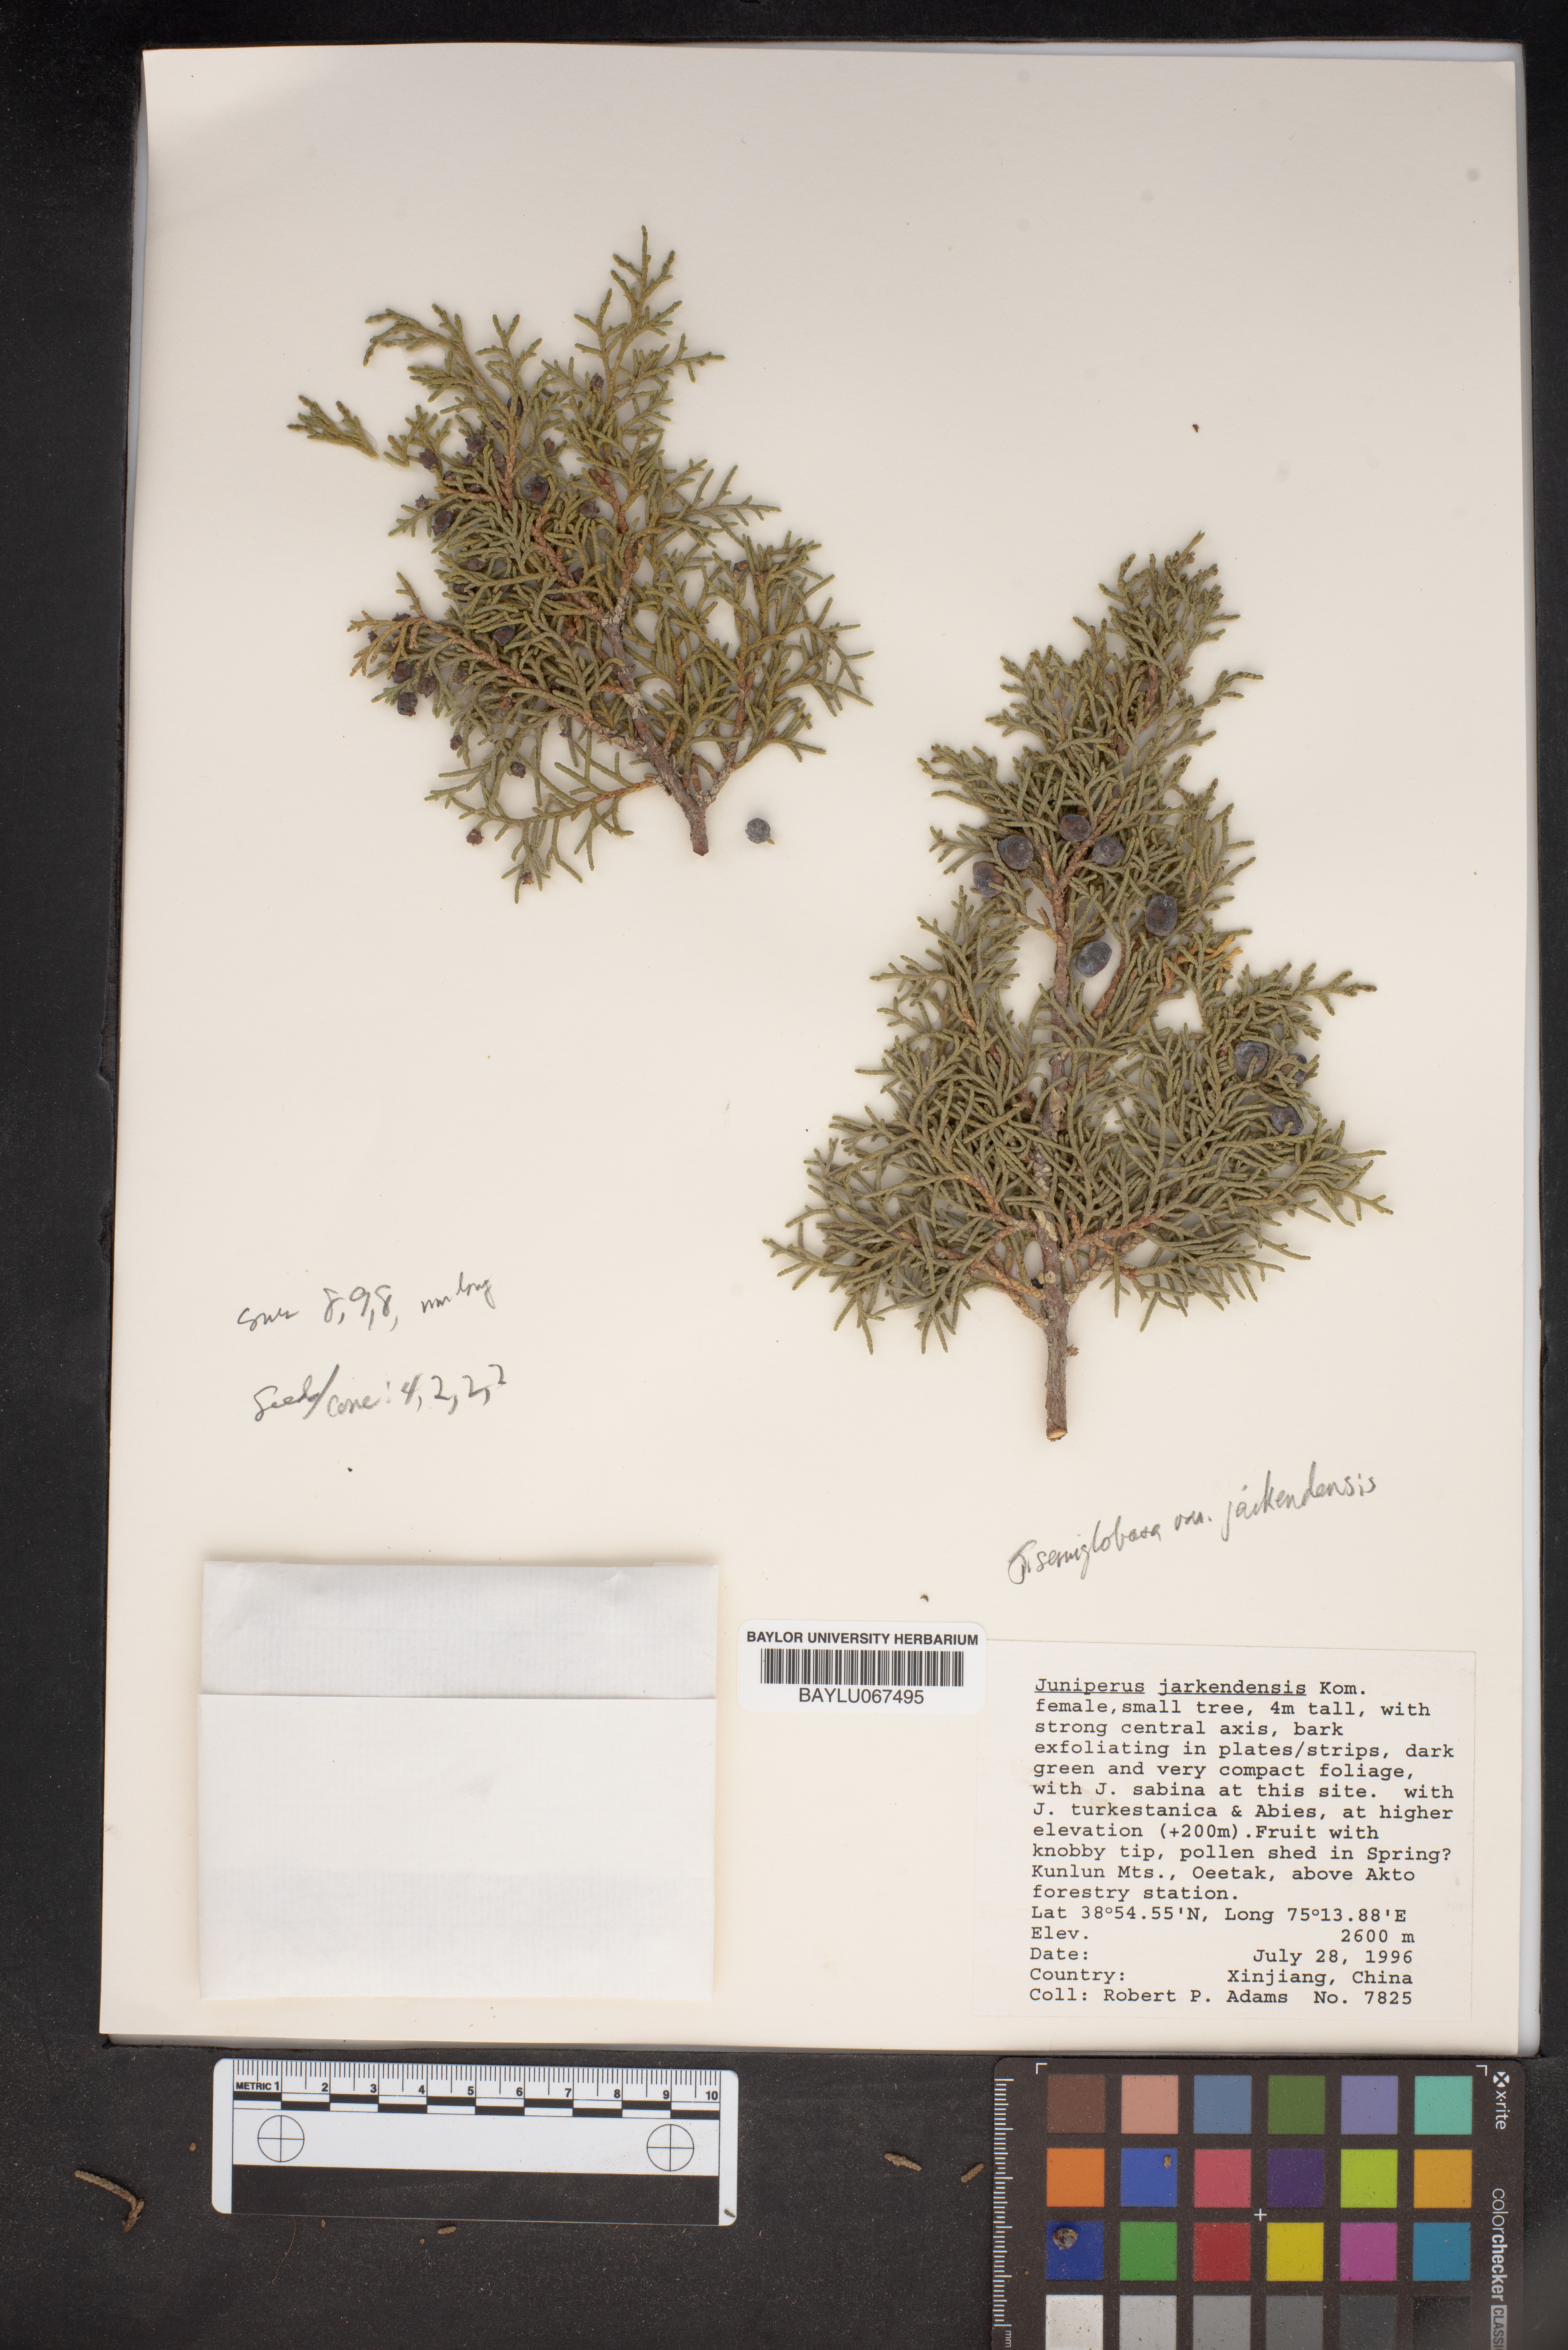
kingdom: Plantae
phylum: Tracheophyta
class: Pinopsida
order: Pinales
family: Cupressaceae
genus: Juniperus
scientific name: Juniperus semiglobosa
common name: Pencil cedar
